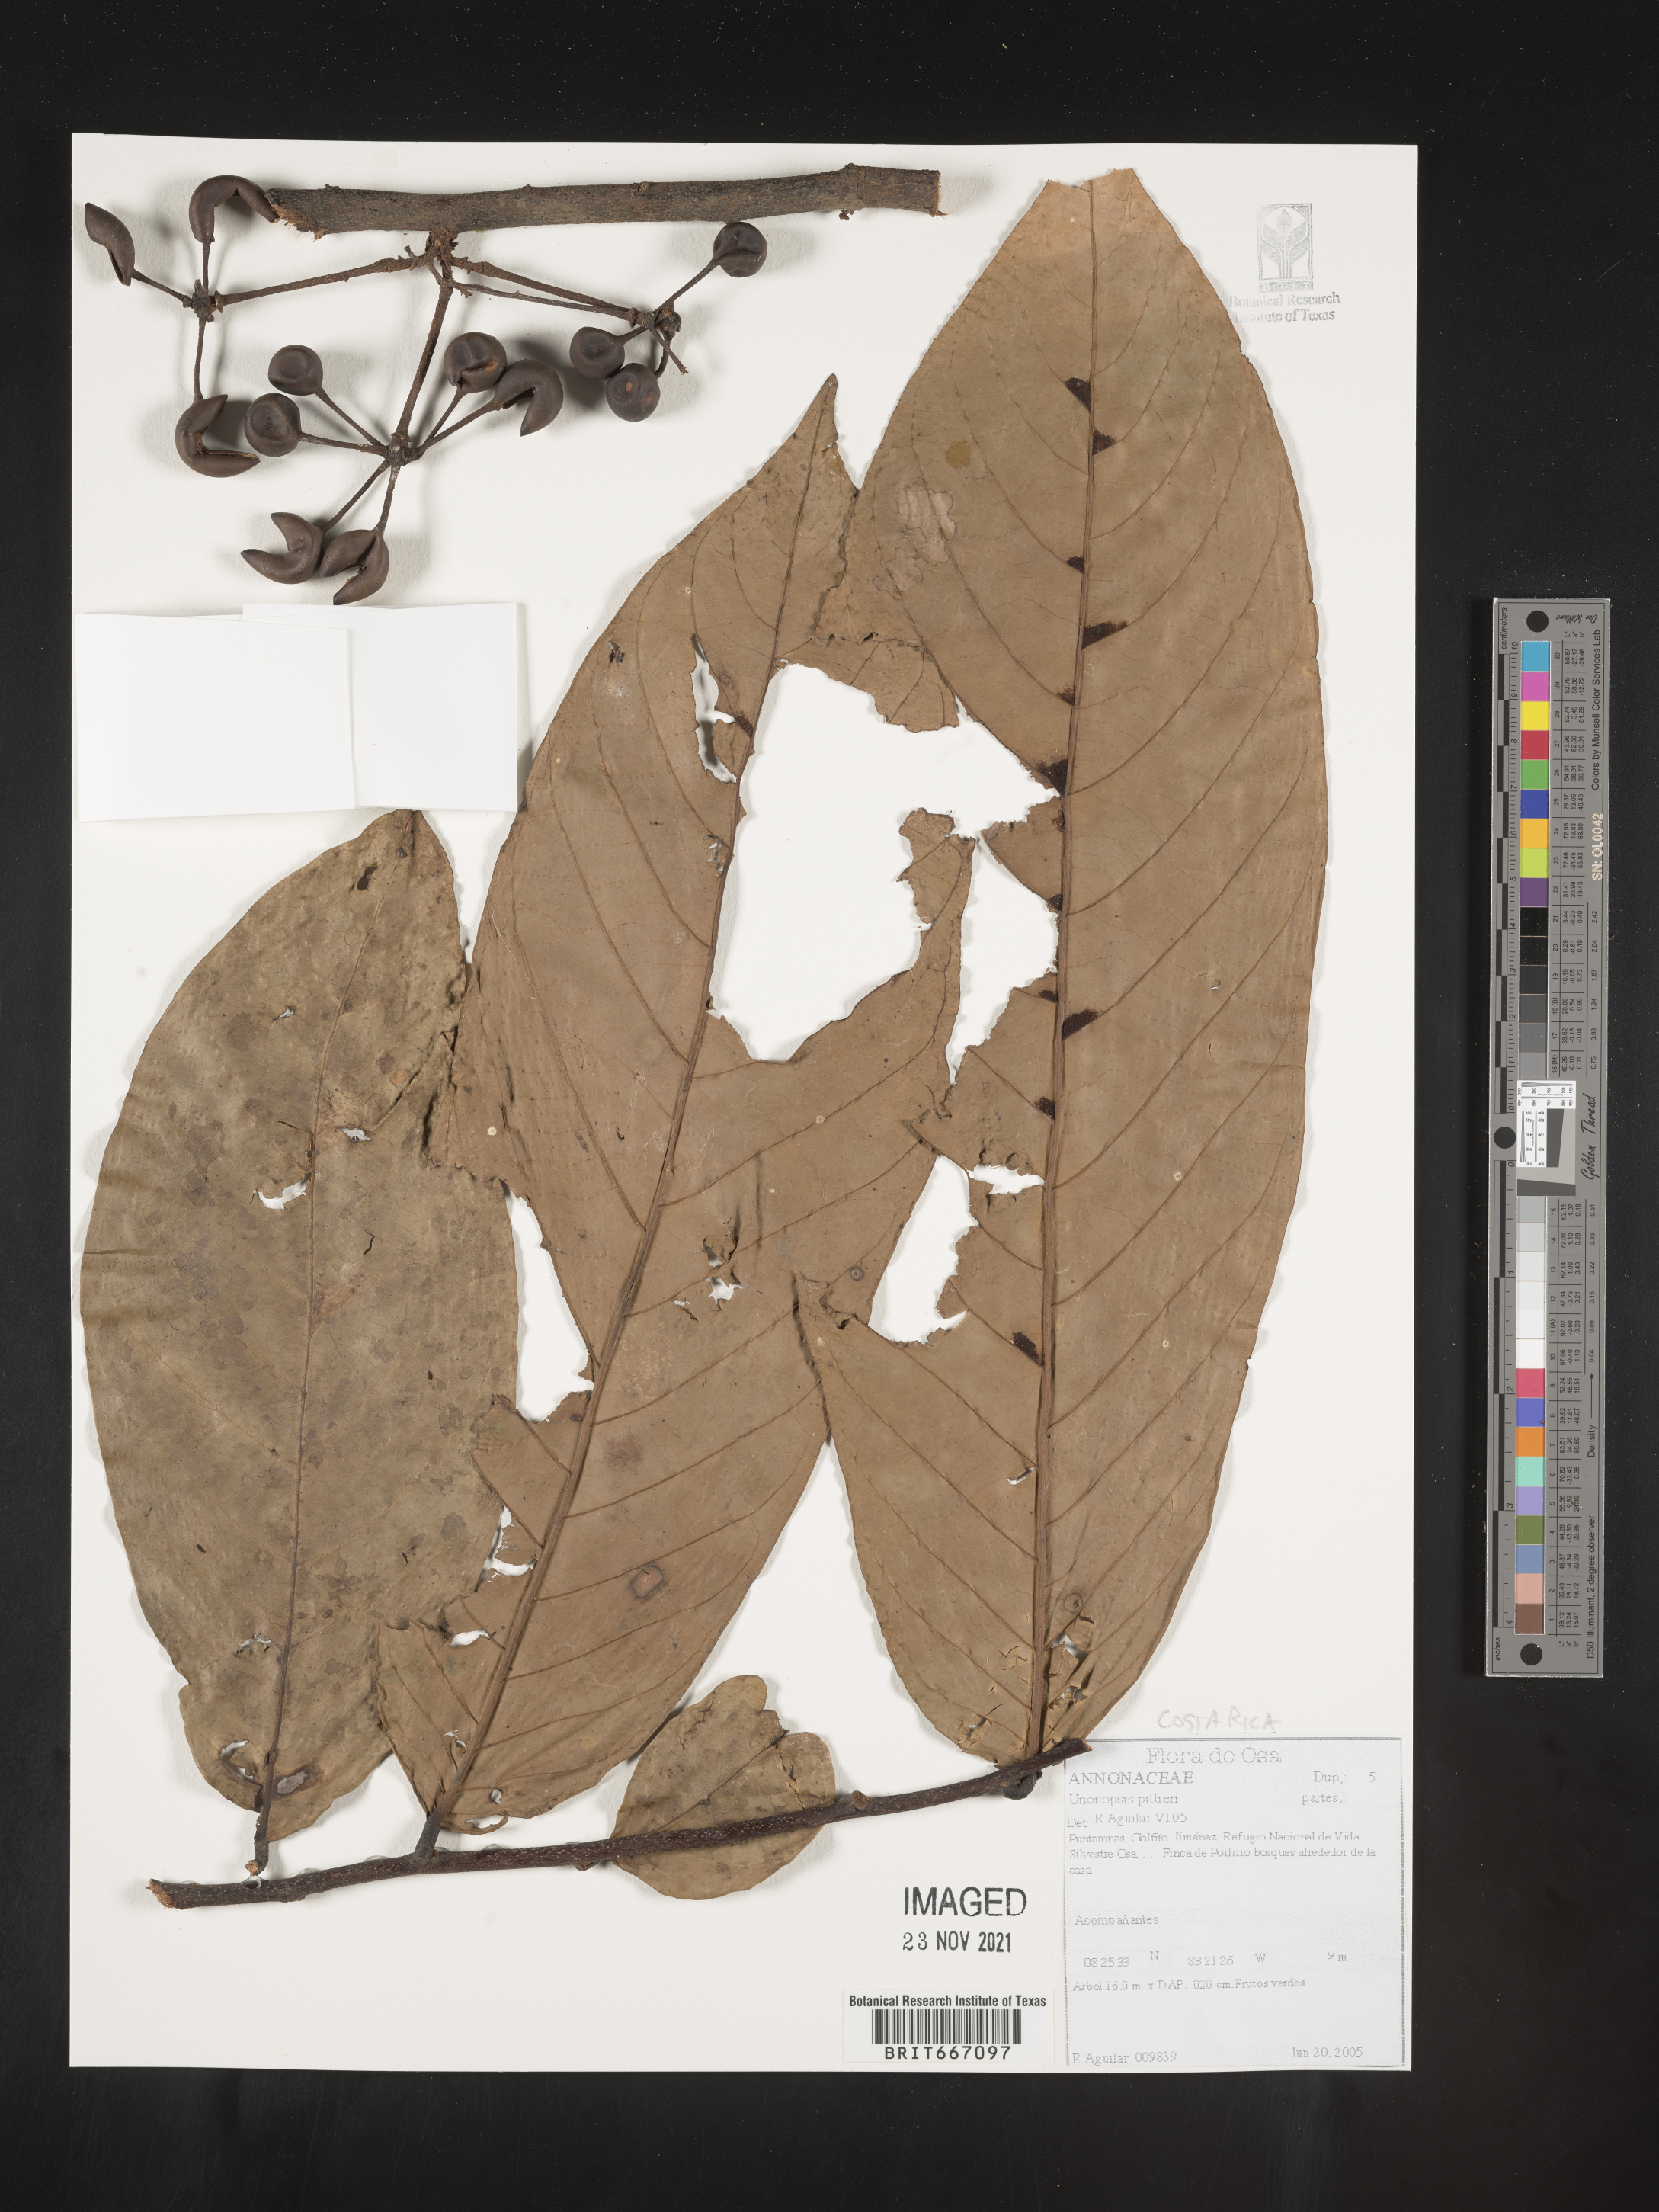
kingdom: Plantae
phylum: Tracheophyta
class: Magnoliopsida
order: Magnoliales
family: Annonaceae
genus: Unonopsis
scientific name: Unonopsis
